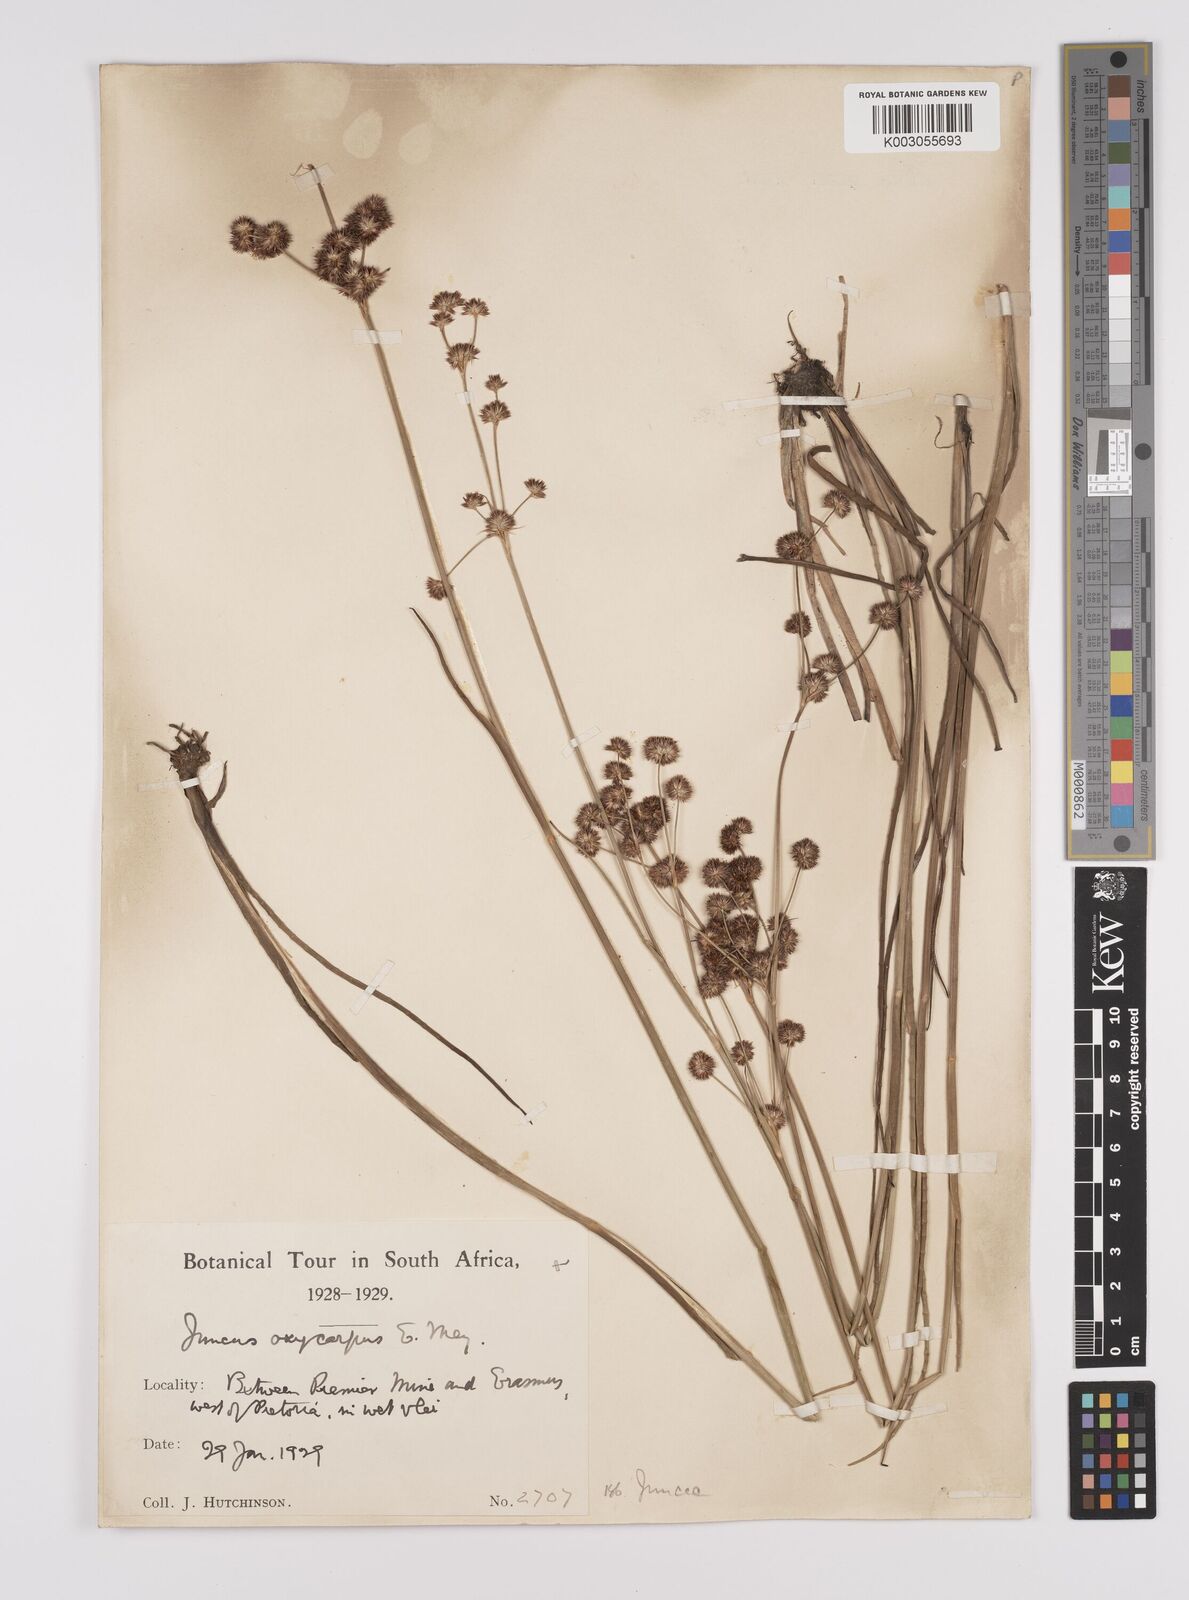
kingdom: Plantae
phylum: Tracheophyta
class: Liliopsida
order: Poales
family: Juncaceae
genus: Juncus
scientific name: Juncus oxycarpus
